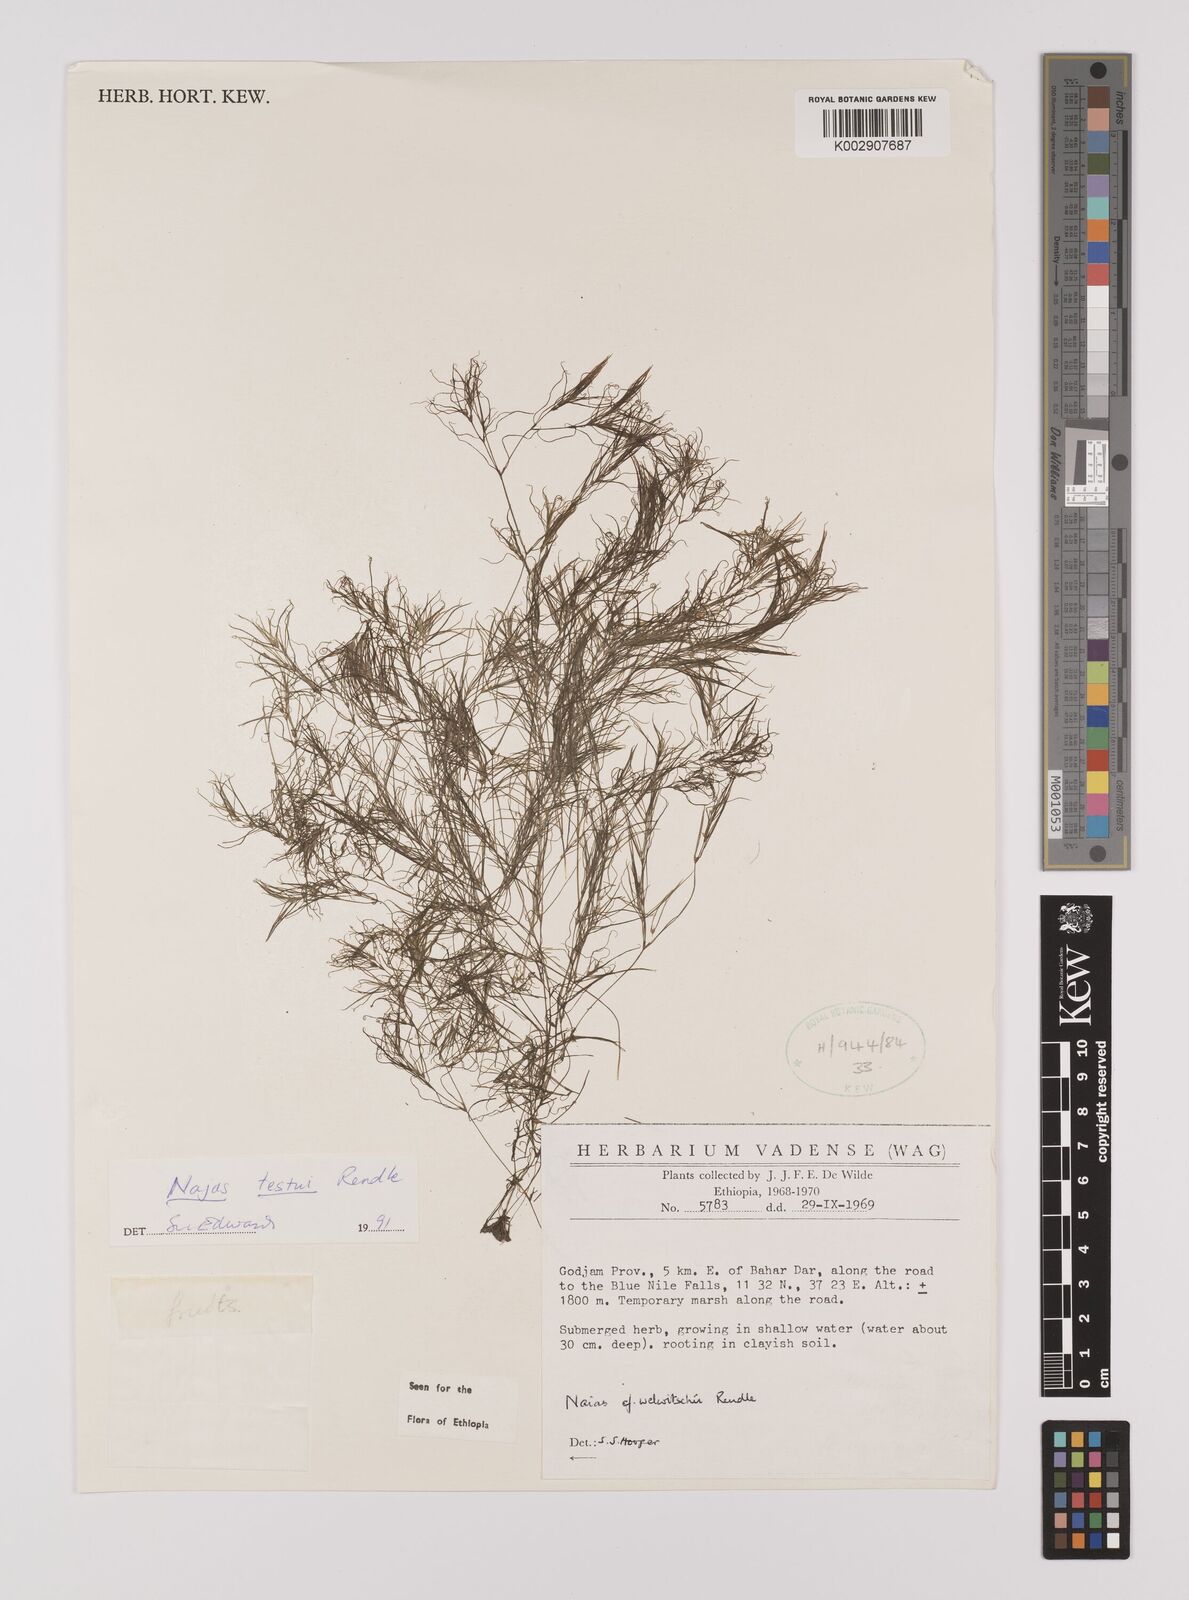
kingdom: Plantae
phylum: Tracheophyta
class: Liliopsida
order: Alismatales
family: Hydrocharitaceae
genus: Najas
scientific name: Najas testui
